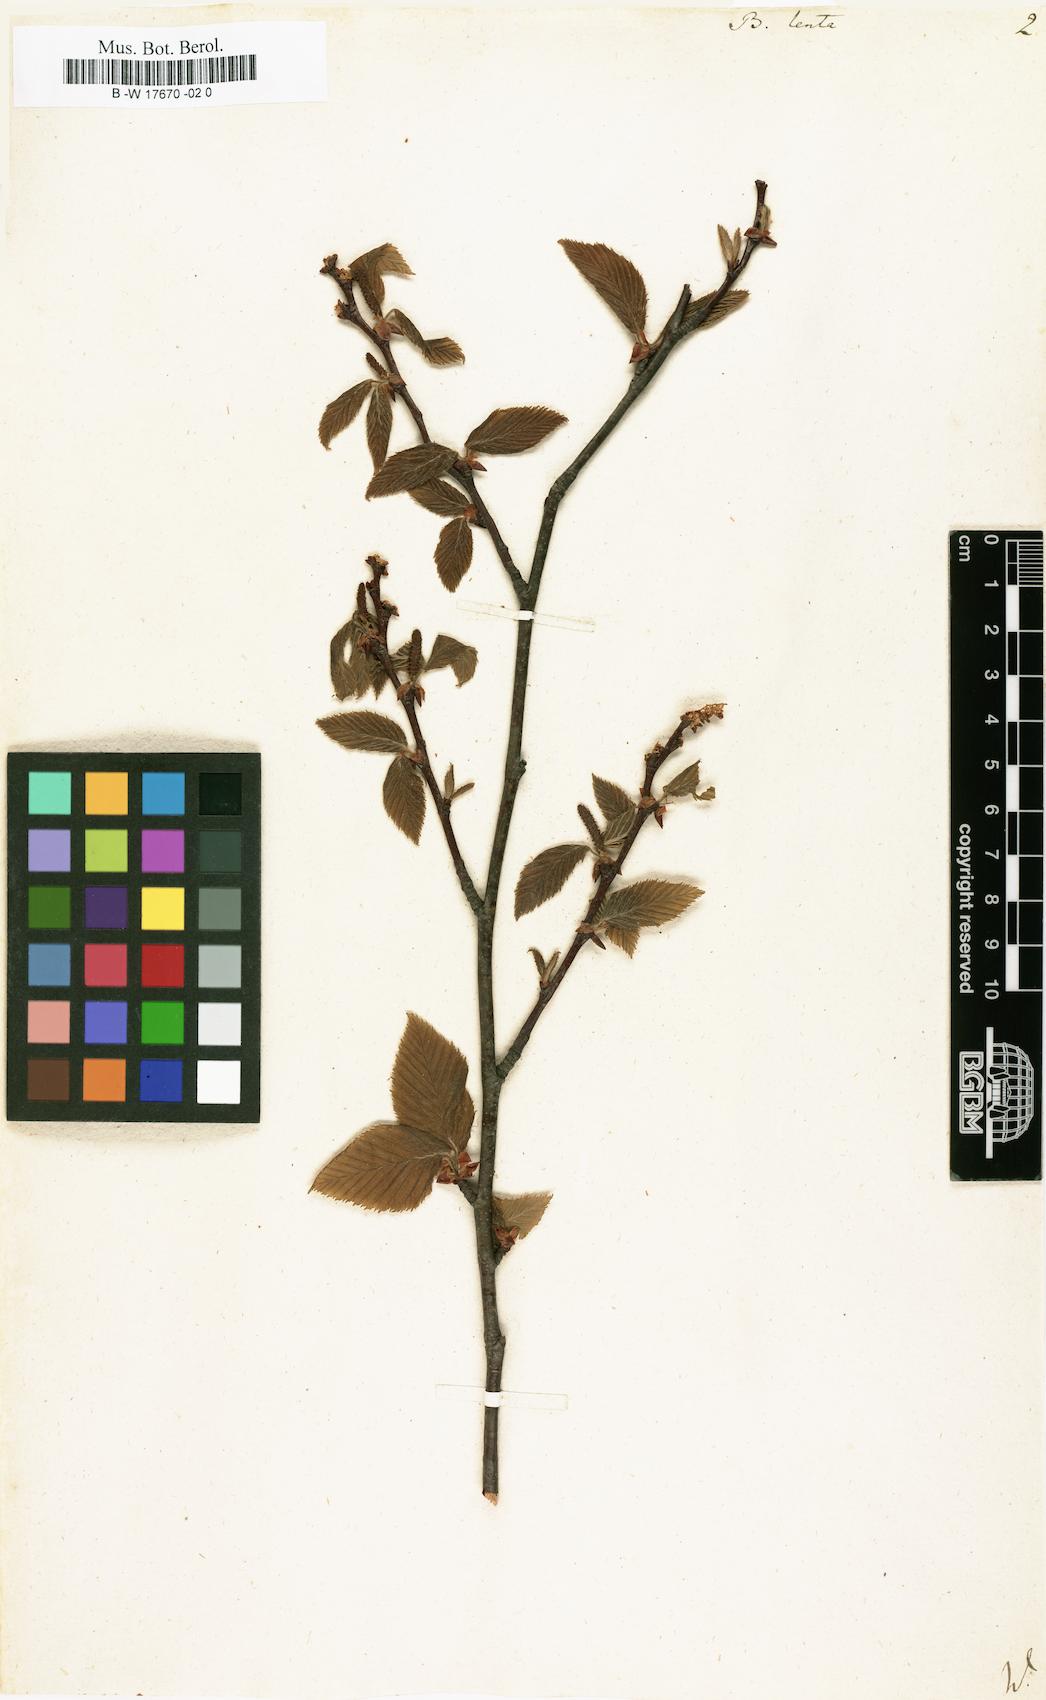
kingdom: Plantae
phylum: Tracheophyta
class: Magnoliopsida
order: Fagales
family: Betulaceae
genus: Betula
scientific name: Betula lenta
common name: Black birch
